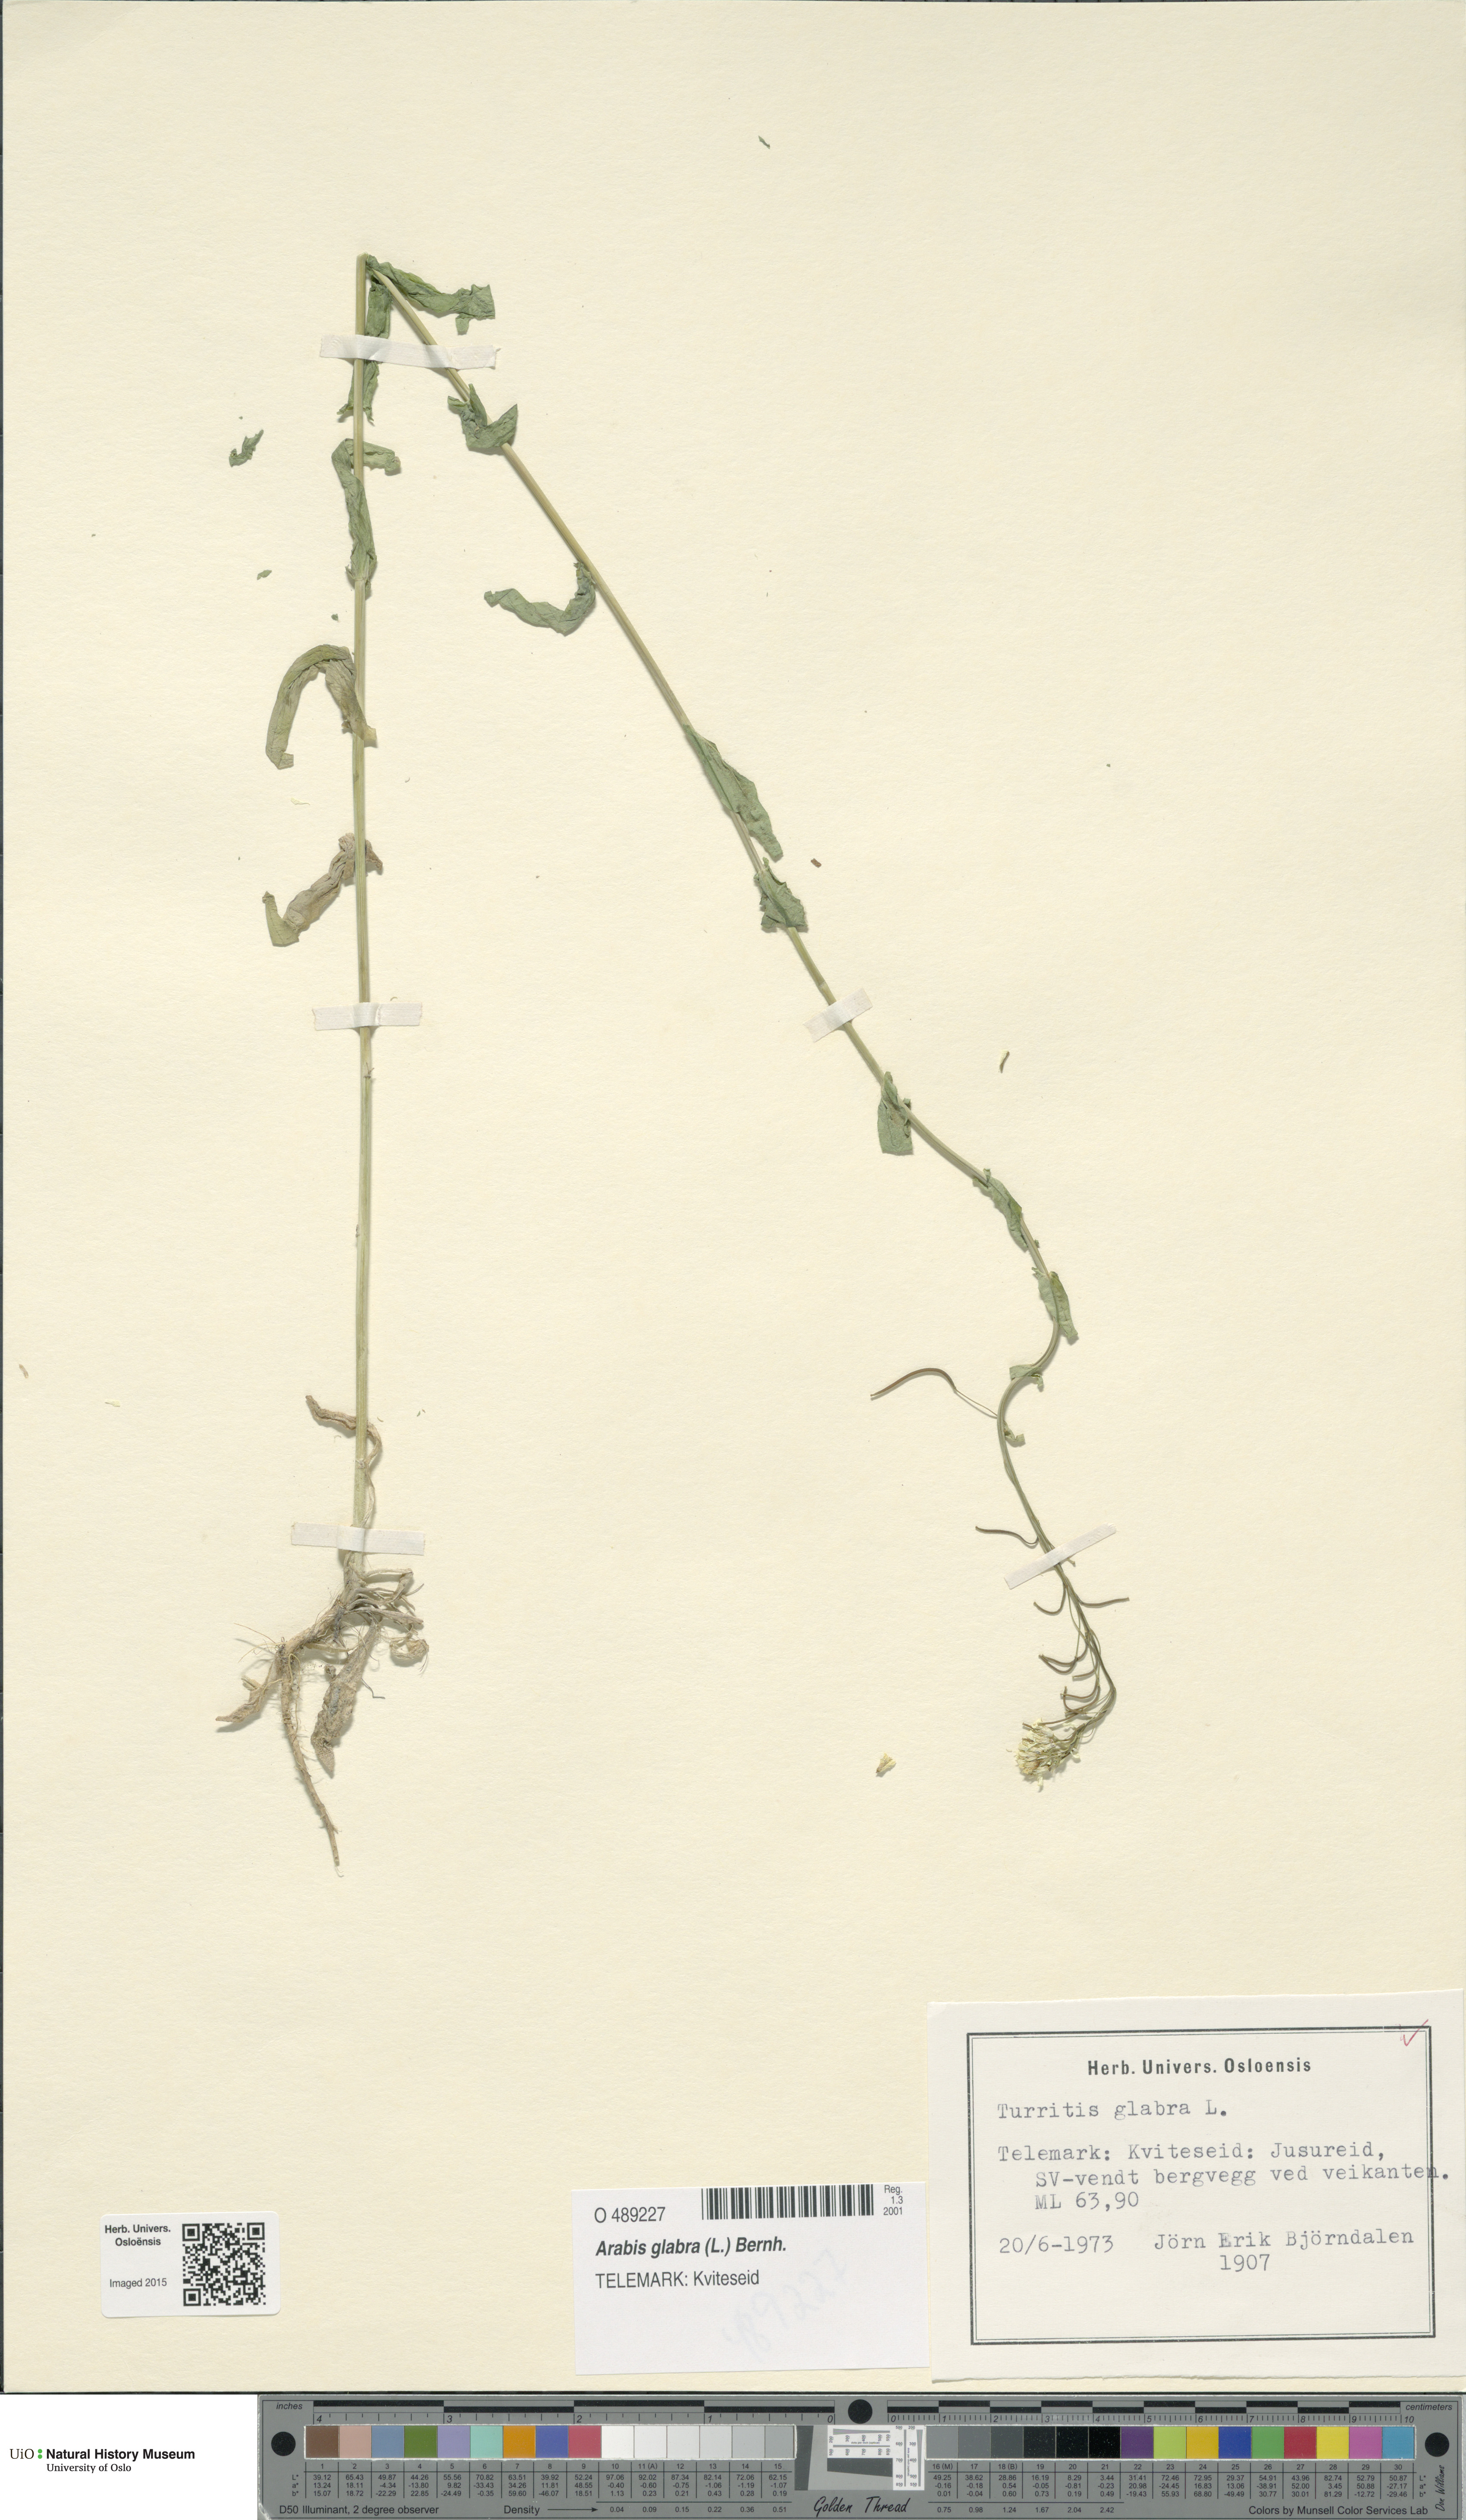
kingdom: Plantae
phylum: Tracheophyta
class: Magnoliopsida
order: Brassicales
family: Brassicaceae
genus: Turritis
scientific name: Turritis glabra
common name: Tower rockcress
